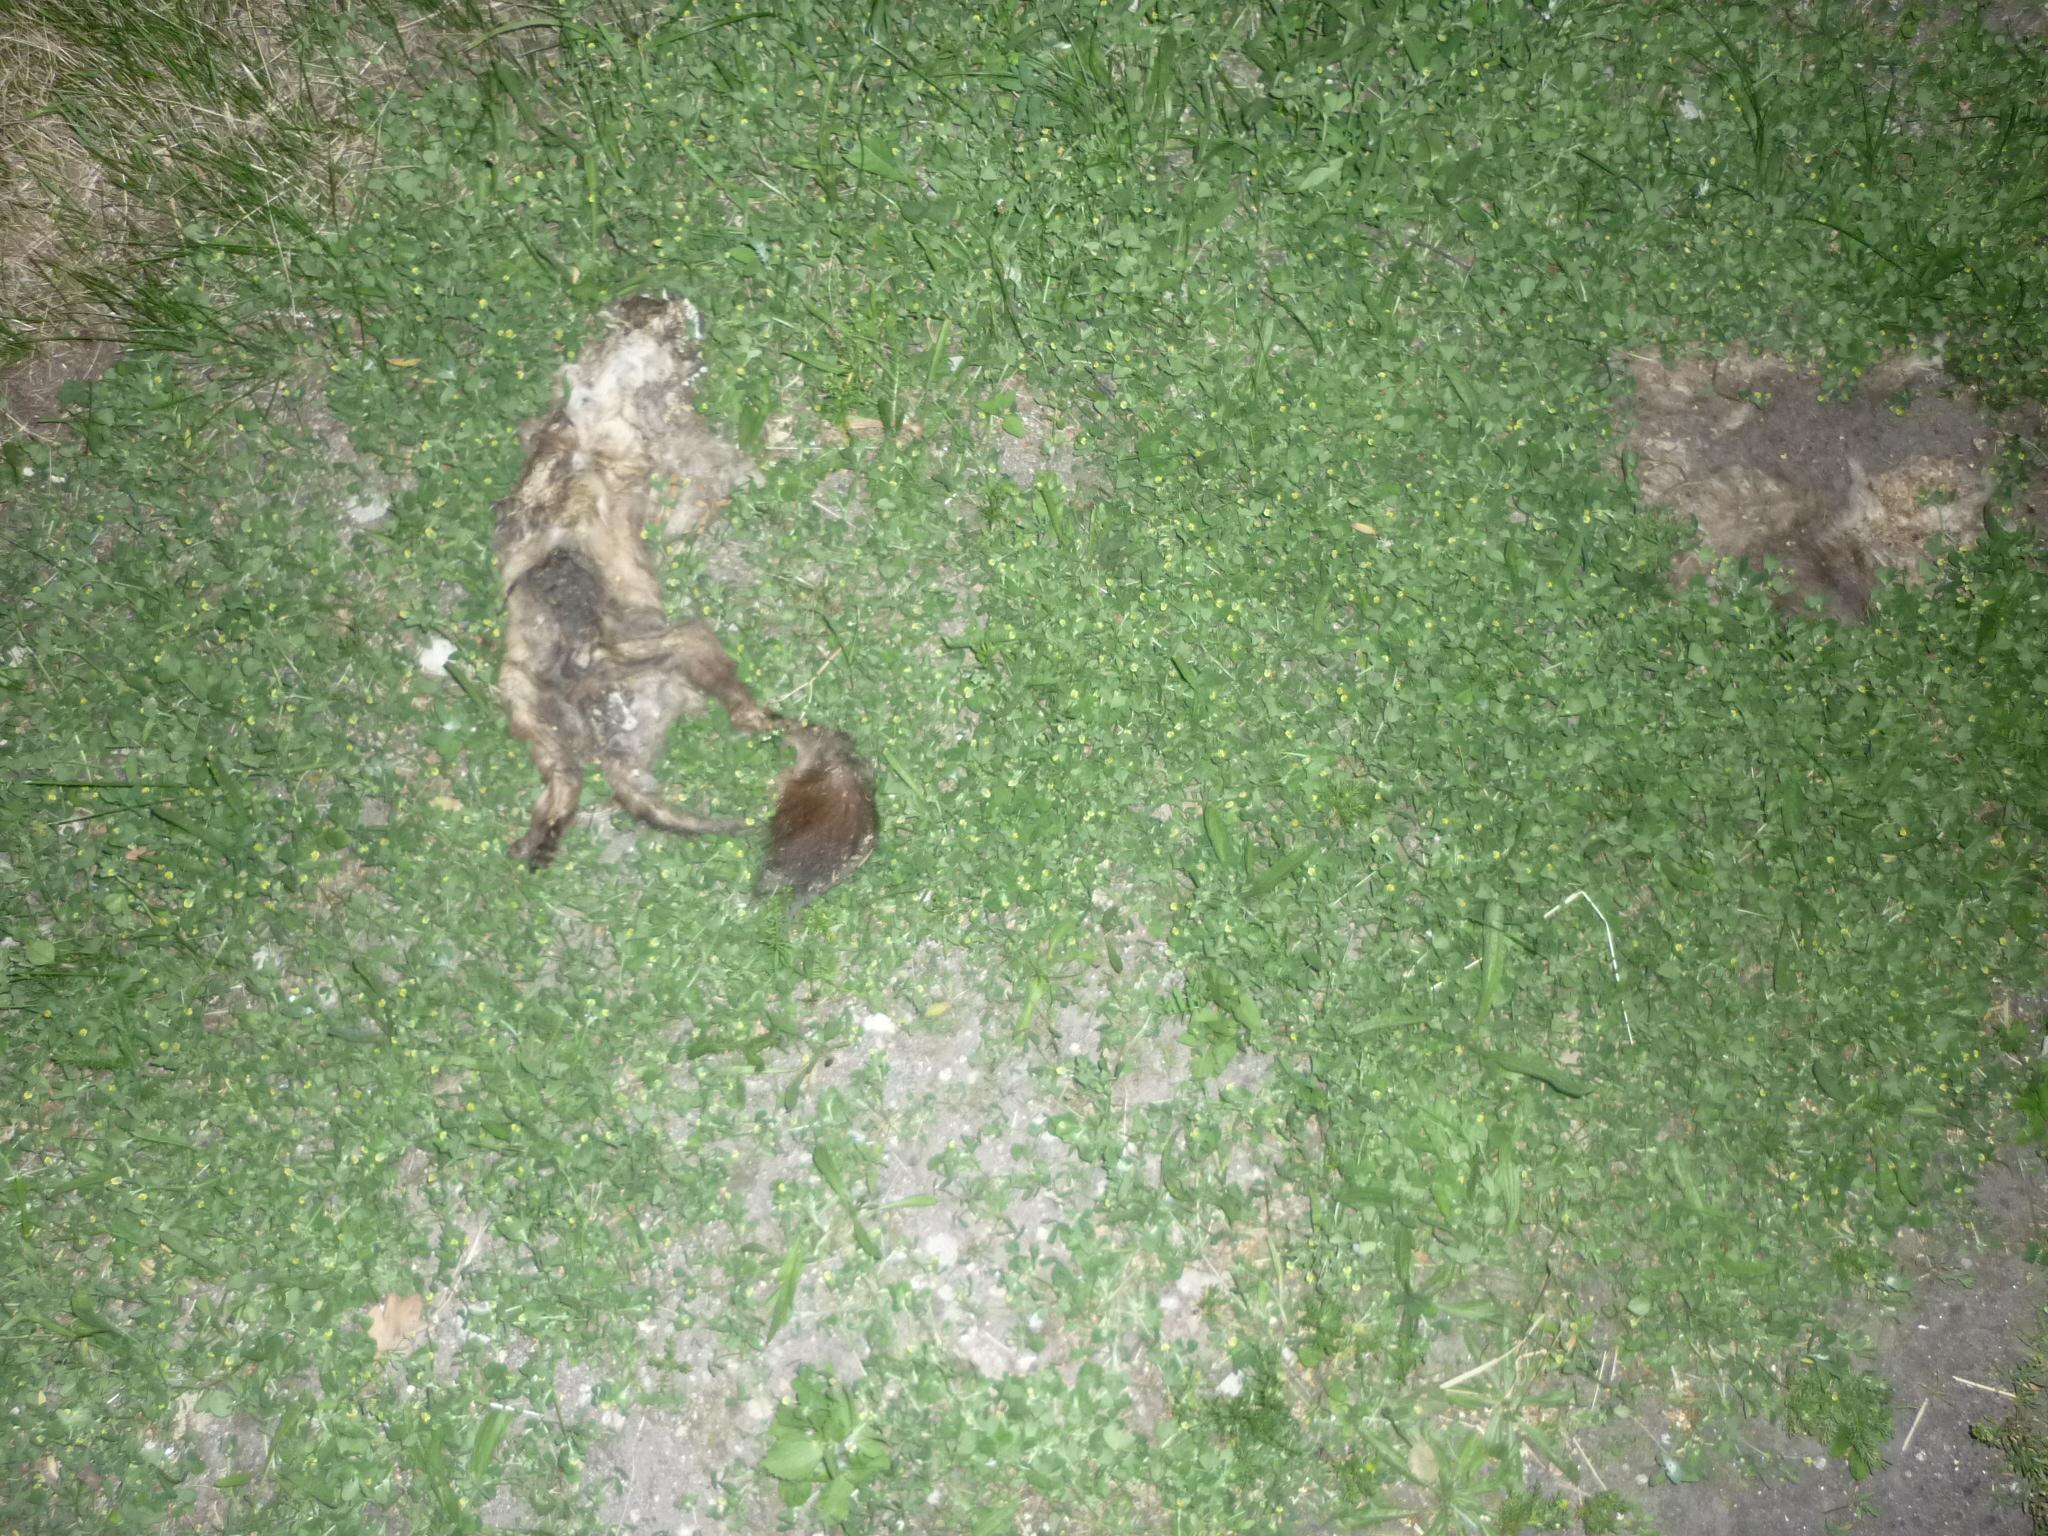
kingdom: Animalia
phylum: Chordata
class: Mammalia
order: Carnivora
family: Mustelidae
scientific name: Mustelidae
